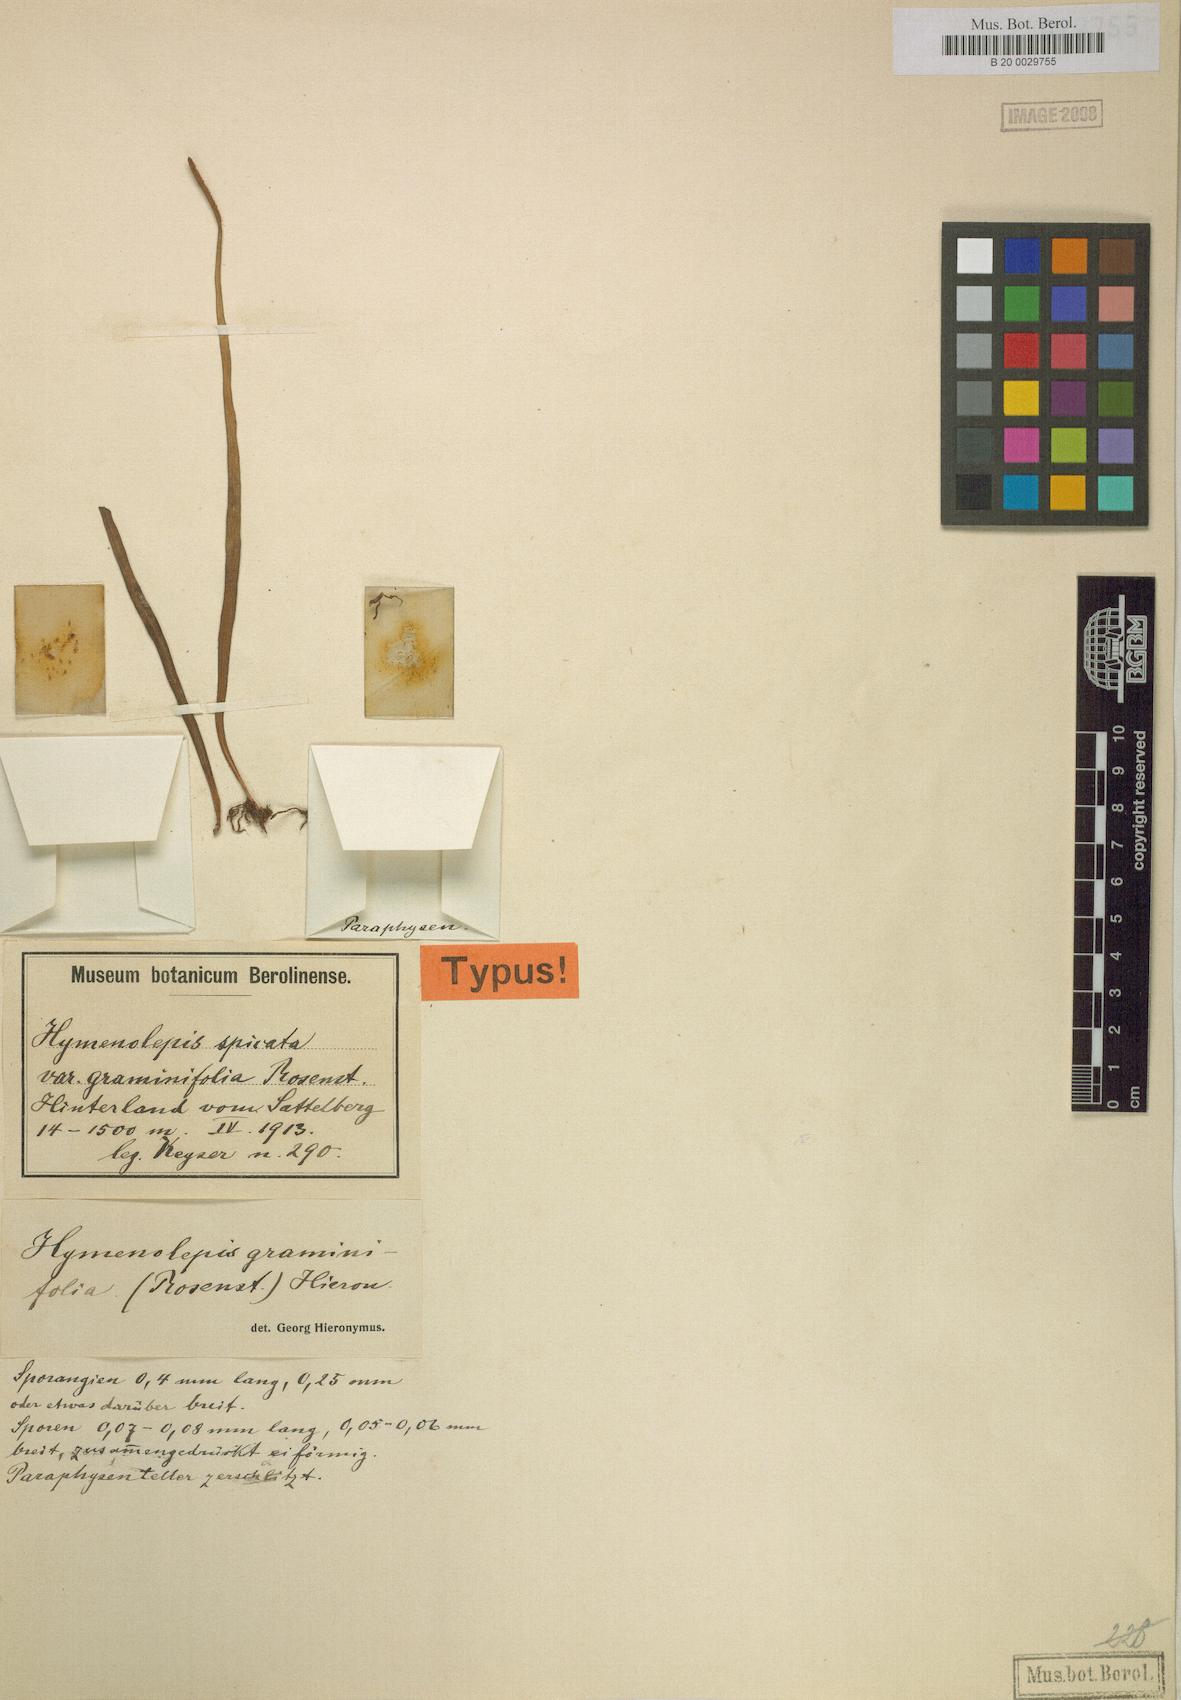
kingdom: Plantae
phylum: Tracheophyta
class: Polypodiopsida
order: Polypodiales
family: Polypodiaceae
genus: Lepisorus
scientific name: Lepisorus mucronatus
